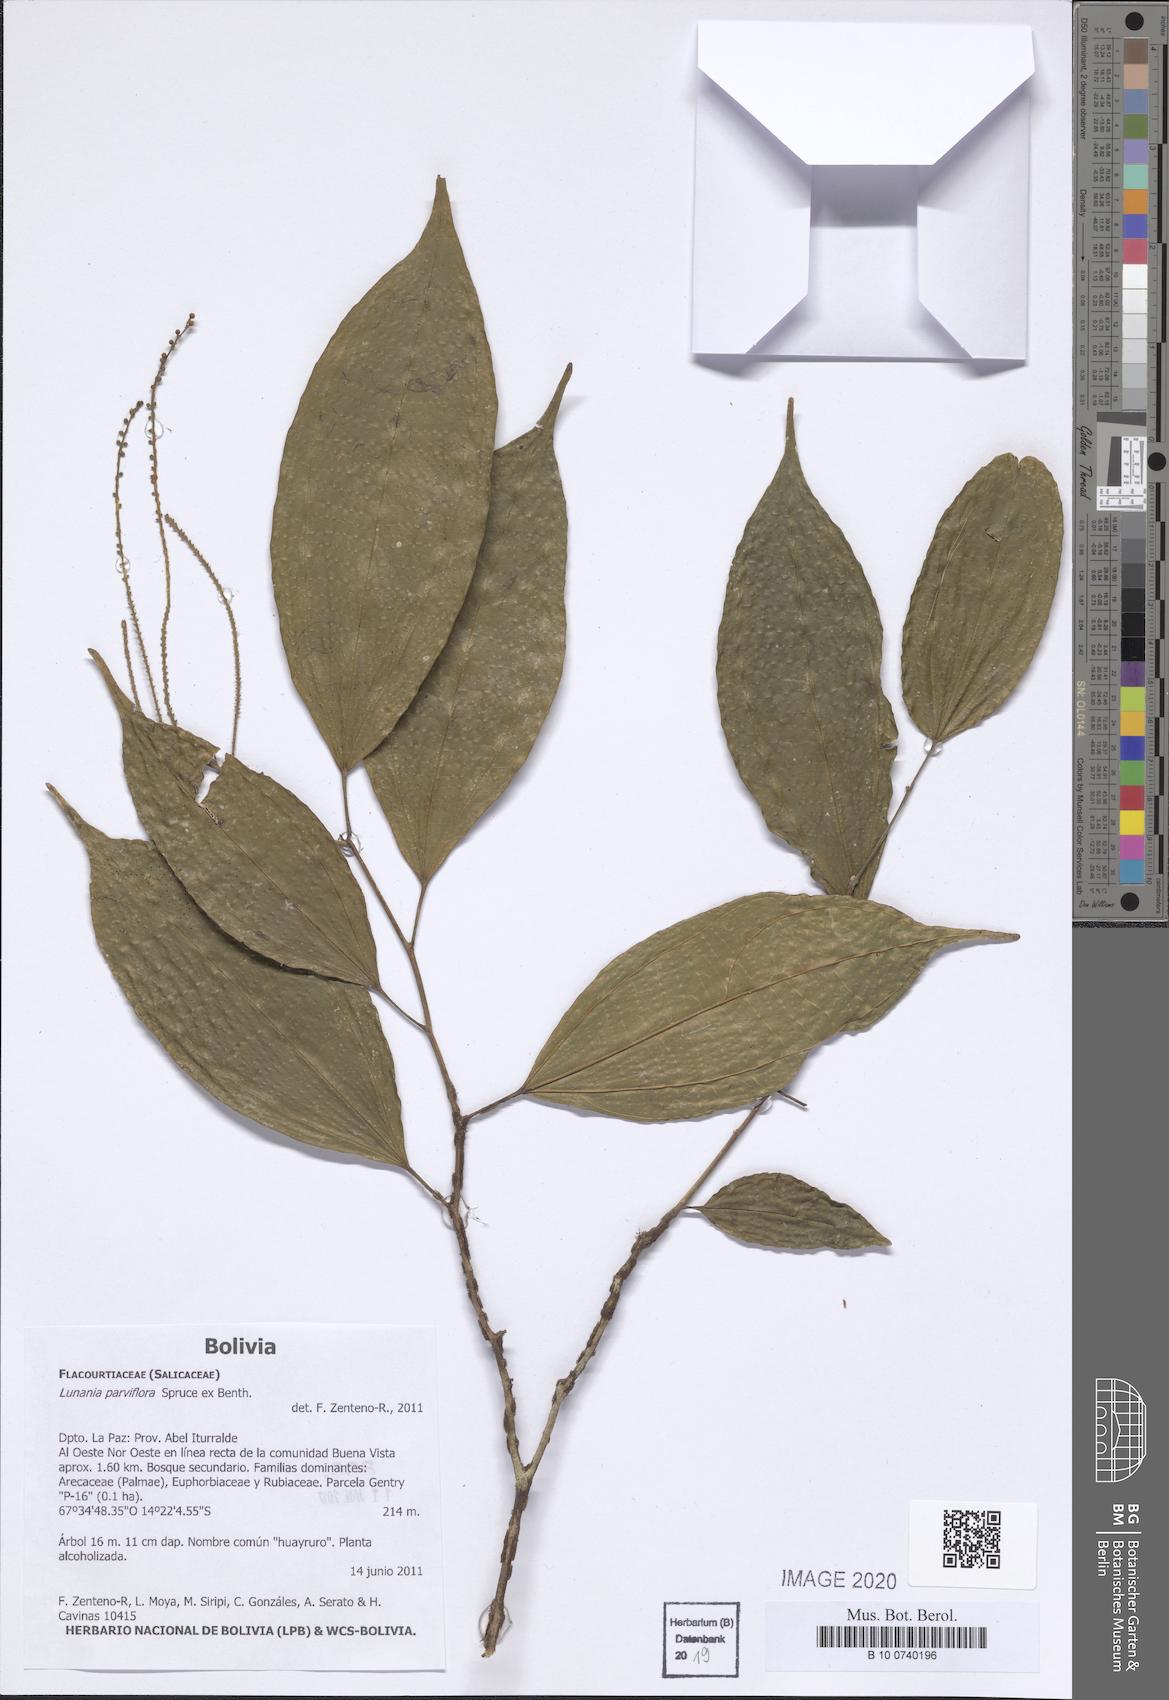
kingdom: Plantae
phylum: Tracheophyta
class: Magnoliopsida
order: Malpighiales
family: Salicaceae
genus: Lunania
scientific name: Lunania parviflora
